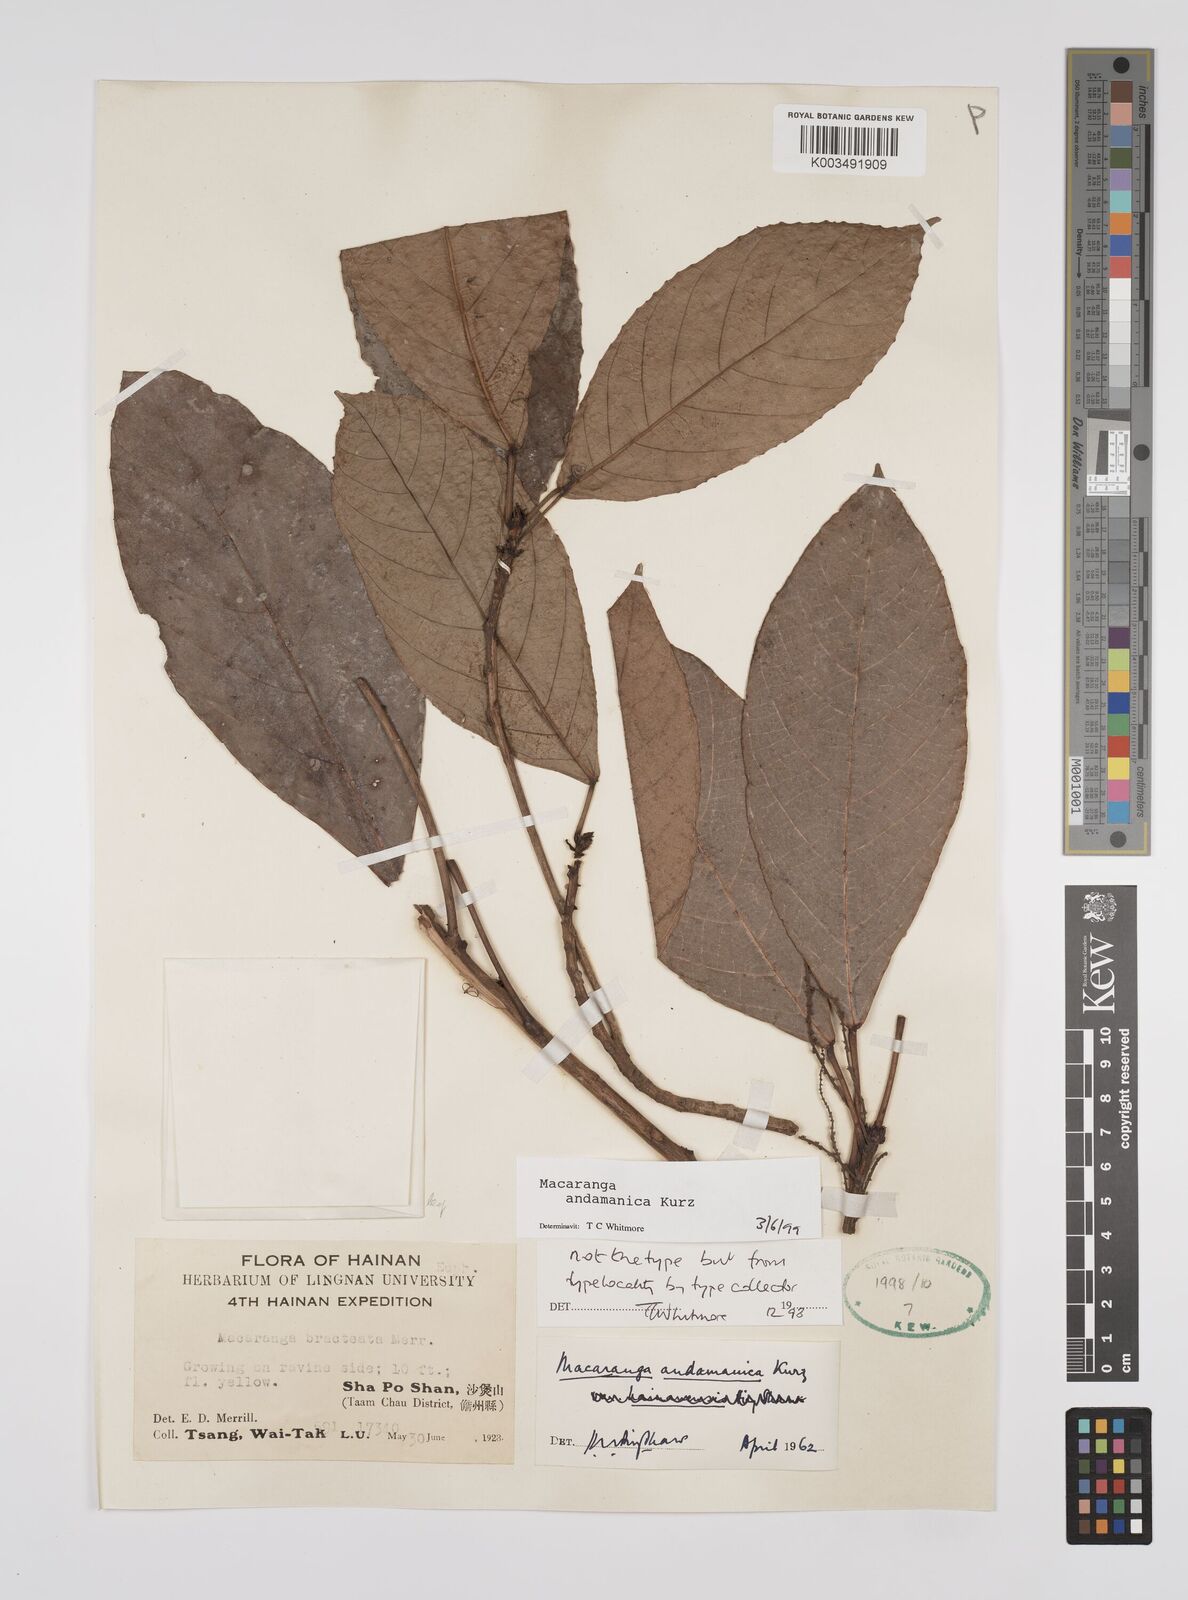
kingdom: Plantae
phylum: Tracheophyta
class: Magnoliopsida
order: Malpighiales
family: Euphorbiaceae
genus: Macaranga
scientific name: Macaranga andamanica
